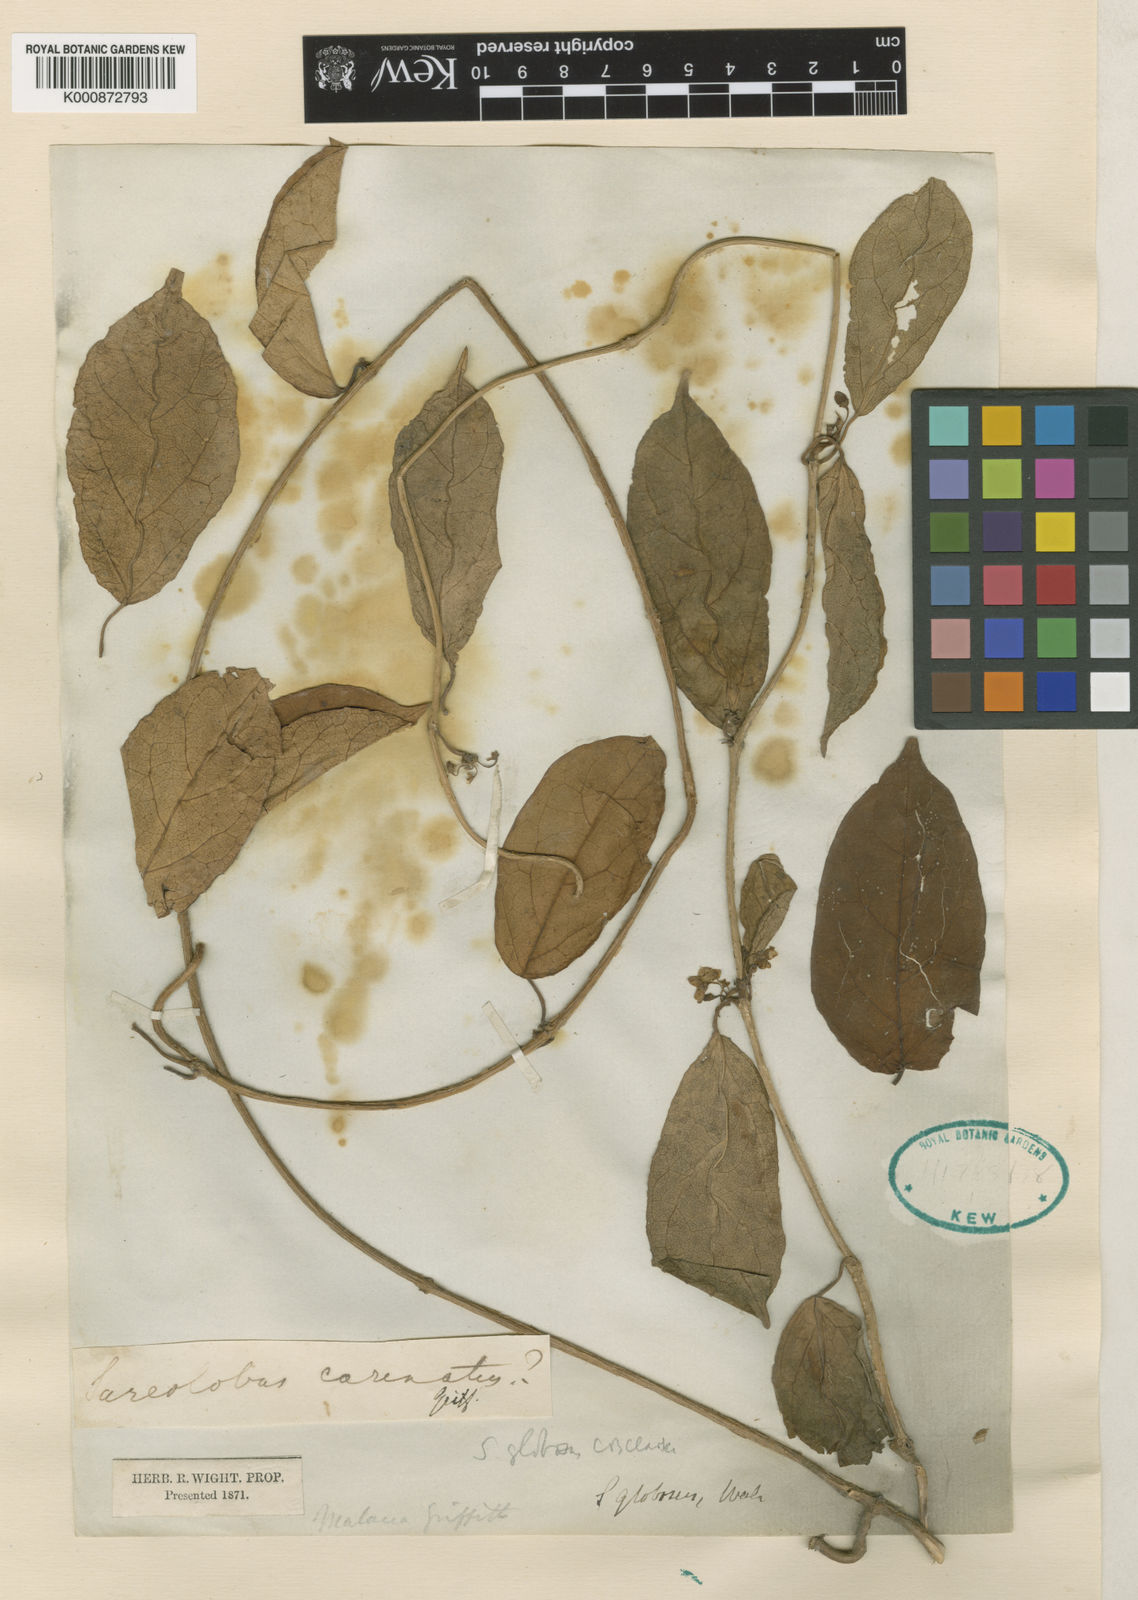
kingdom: Plantae
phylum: Tracheophyta
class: Magnoliopsida
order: Gentianales
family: Apocynaceae
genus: Sarcolobus
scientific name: Sarcolobus globosus
